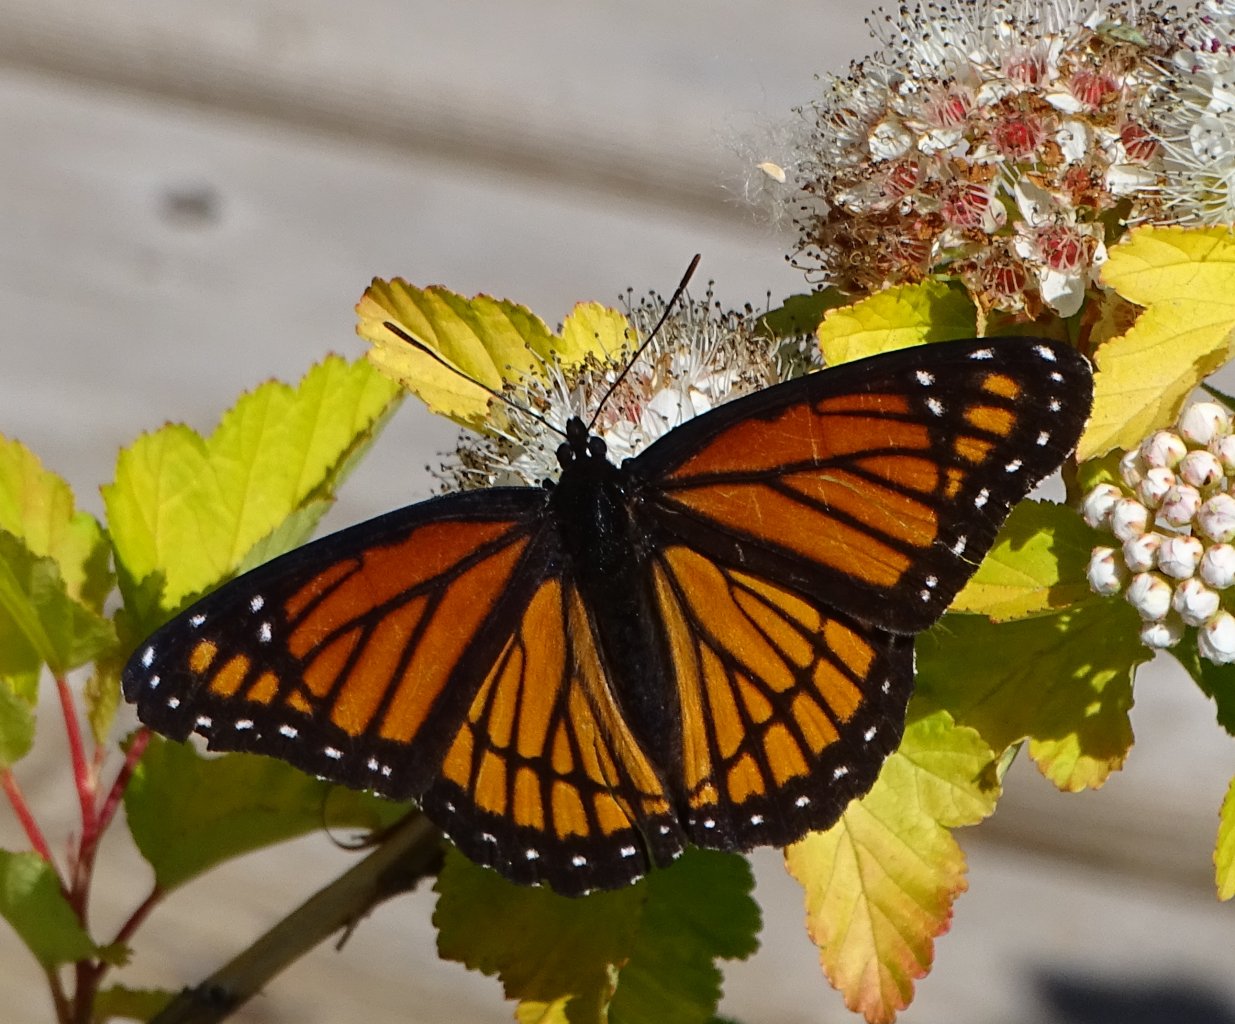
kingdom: Animalia
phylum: Arthropoda
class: Insecta
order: Lepidoptera
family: Nymphalidae
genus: Limenitis
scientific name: Limenitis archippus
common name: Viceroy
